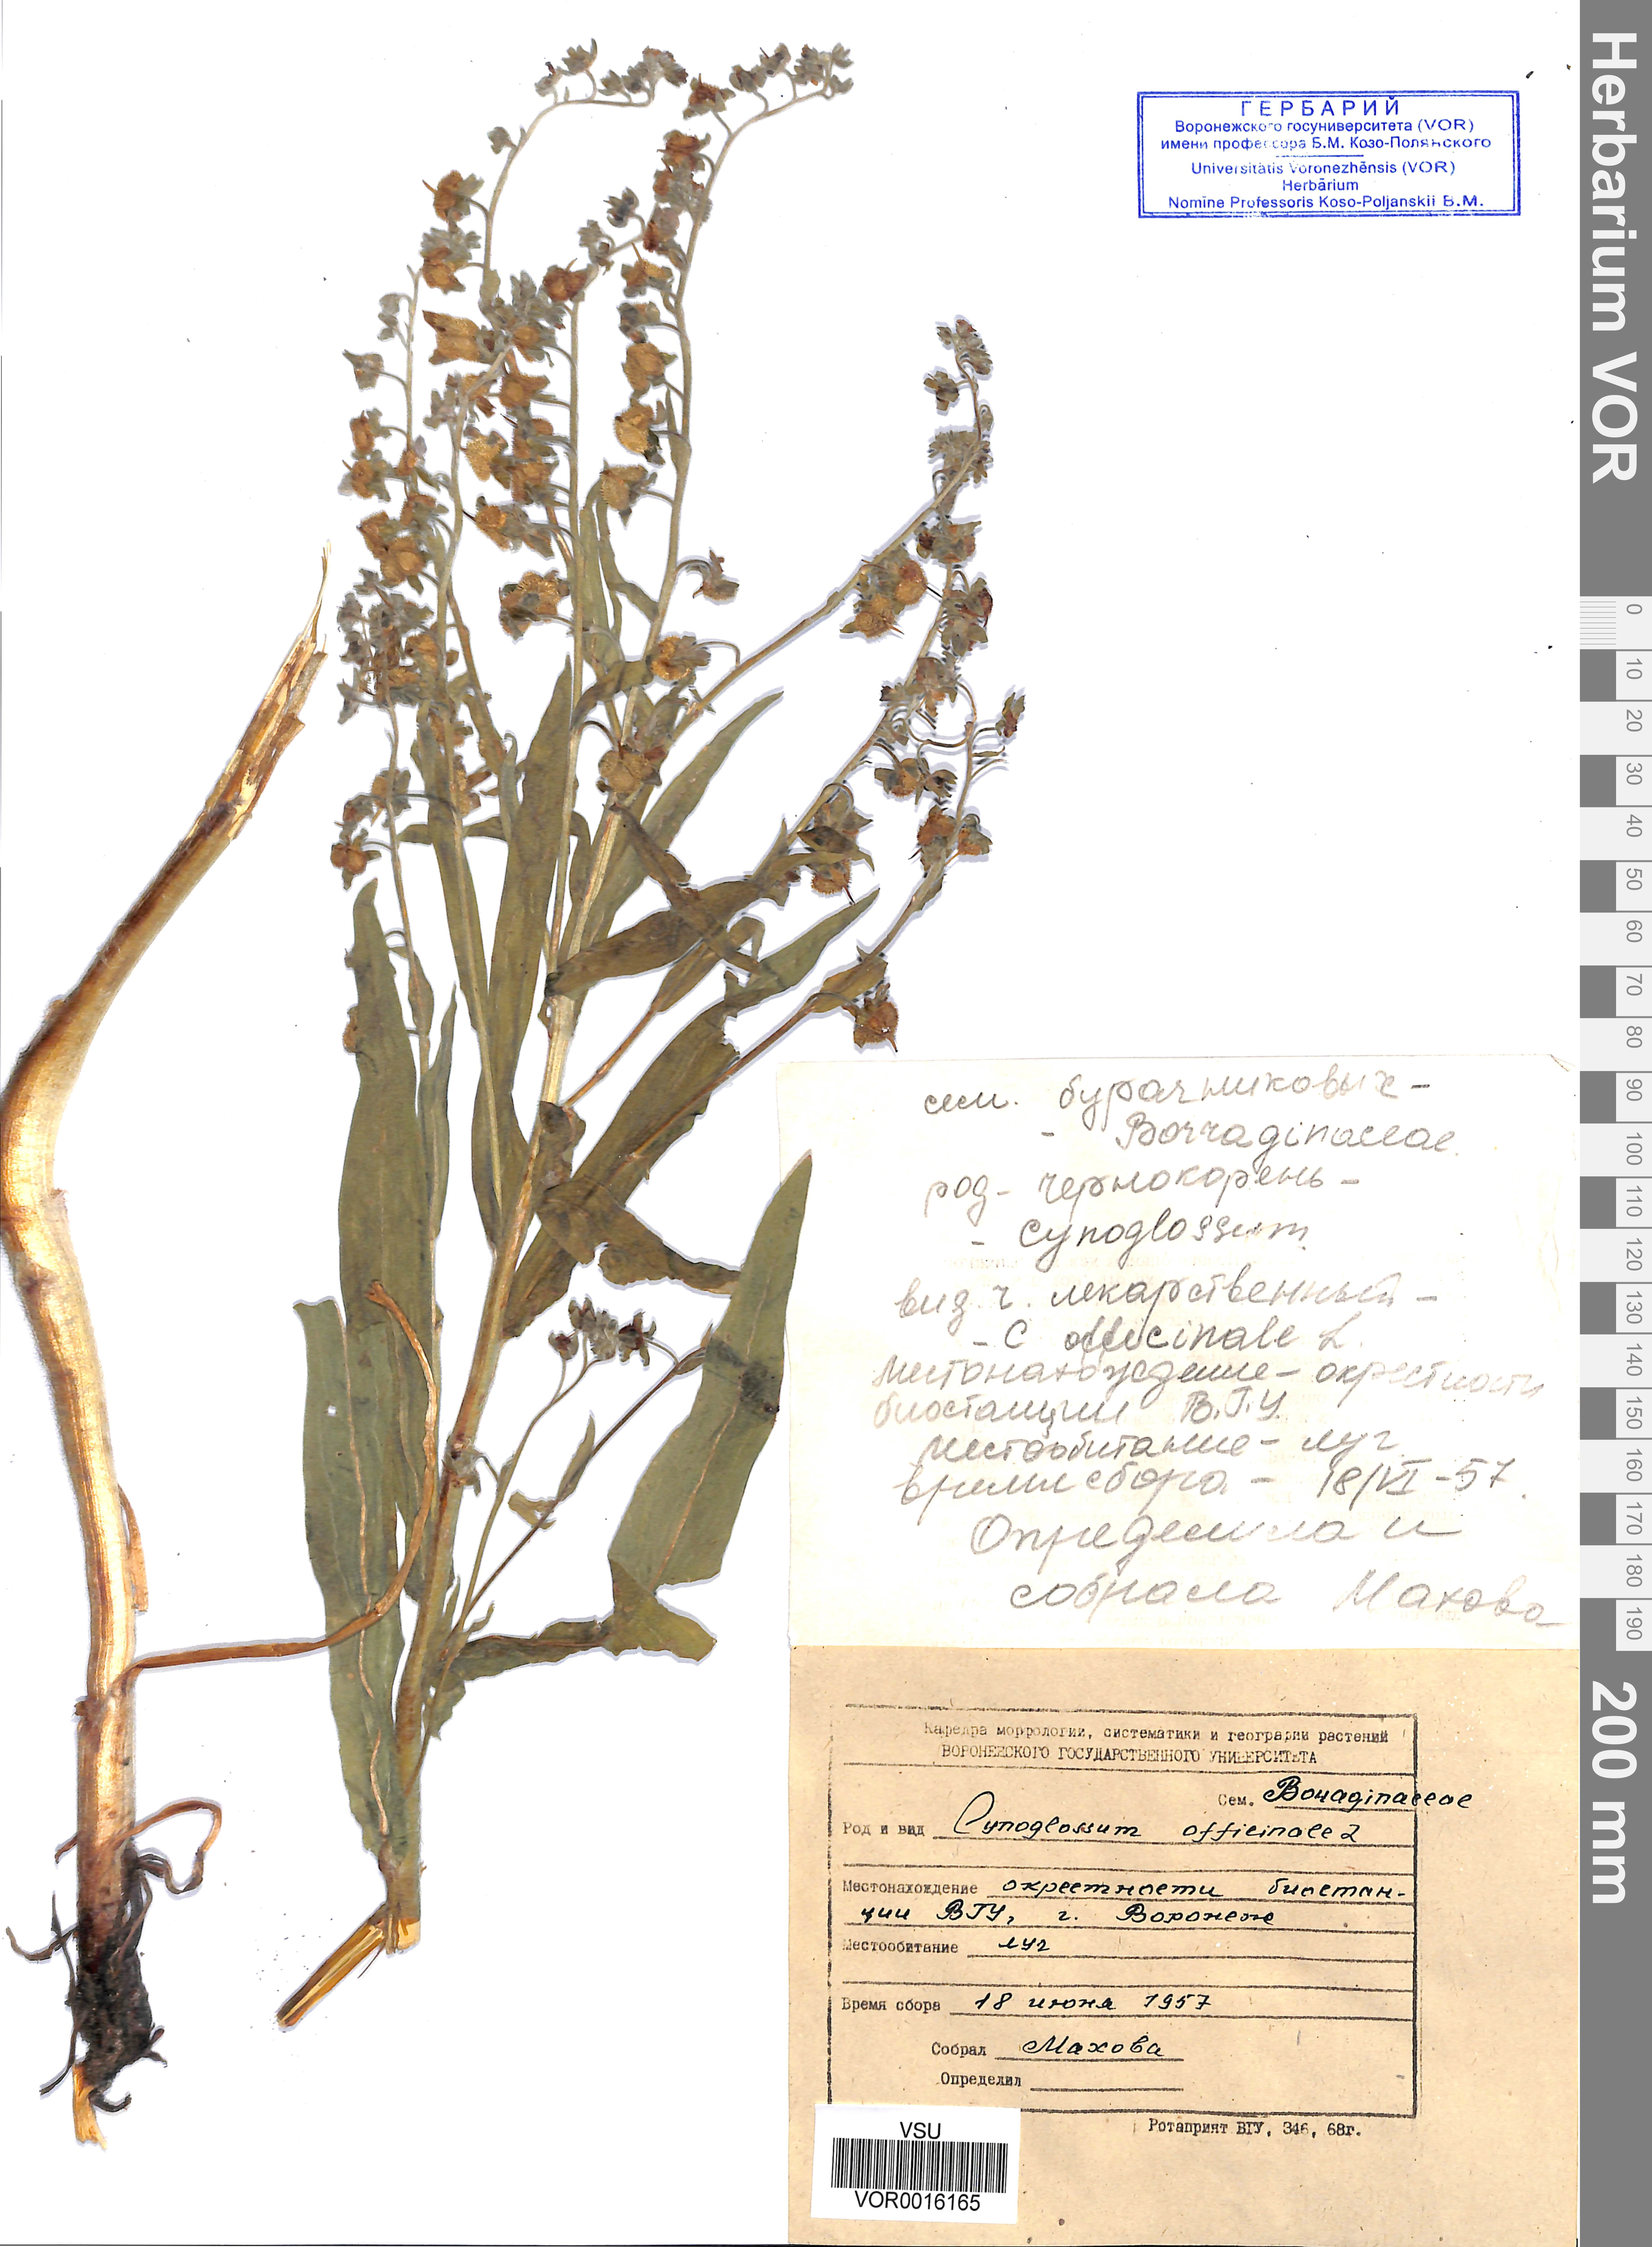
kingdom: Plantae
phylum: Tracheophyta
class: Magnoliopsida
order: Boraginales
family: Boraginaceae
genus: Cynoglossum
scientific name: Cynoglossum officinale
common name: Hound's-tongue
